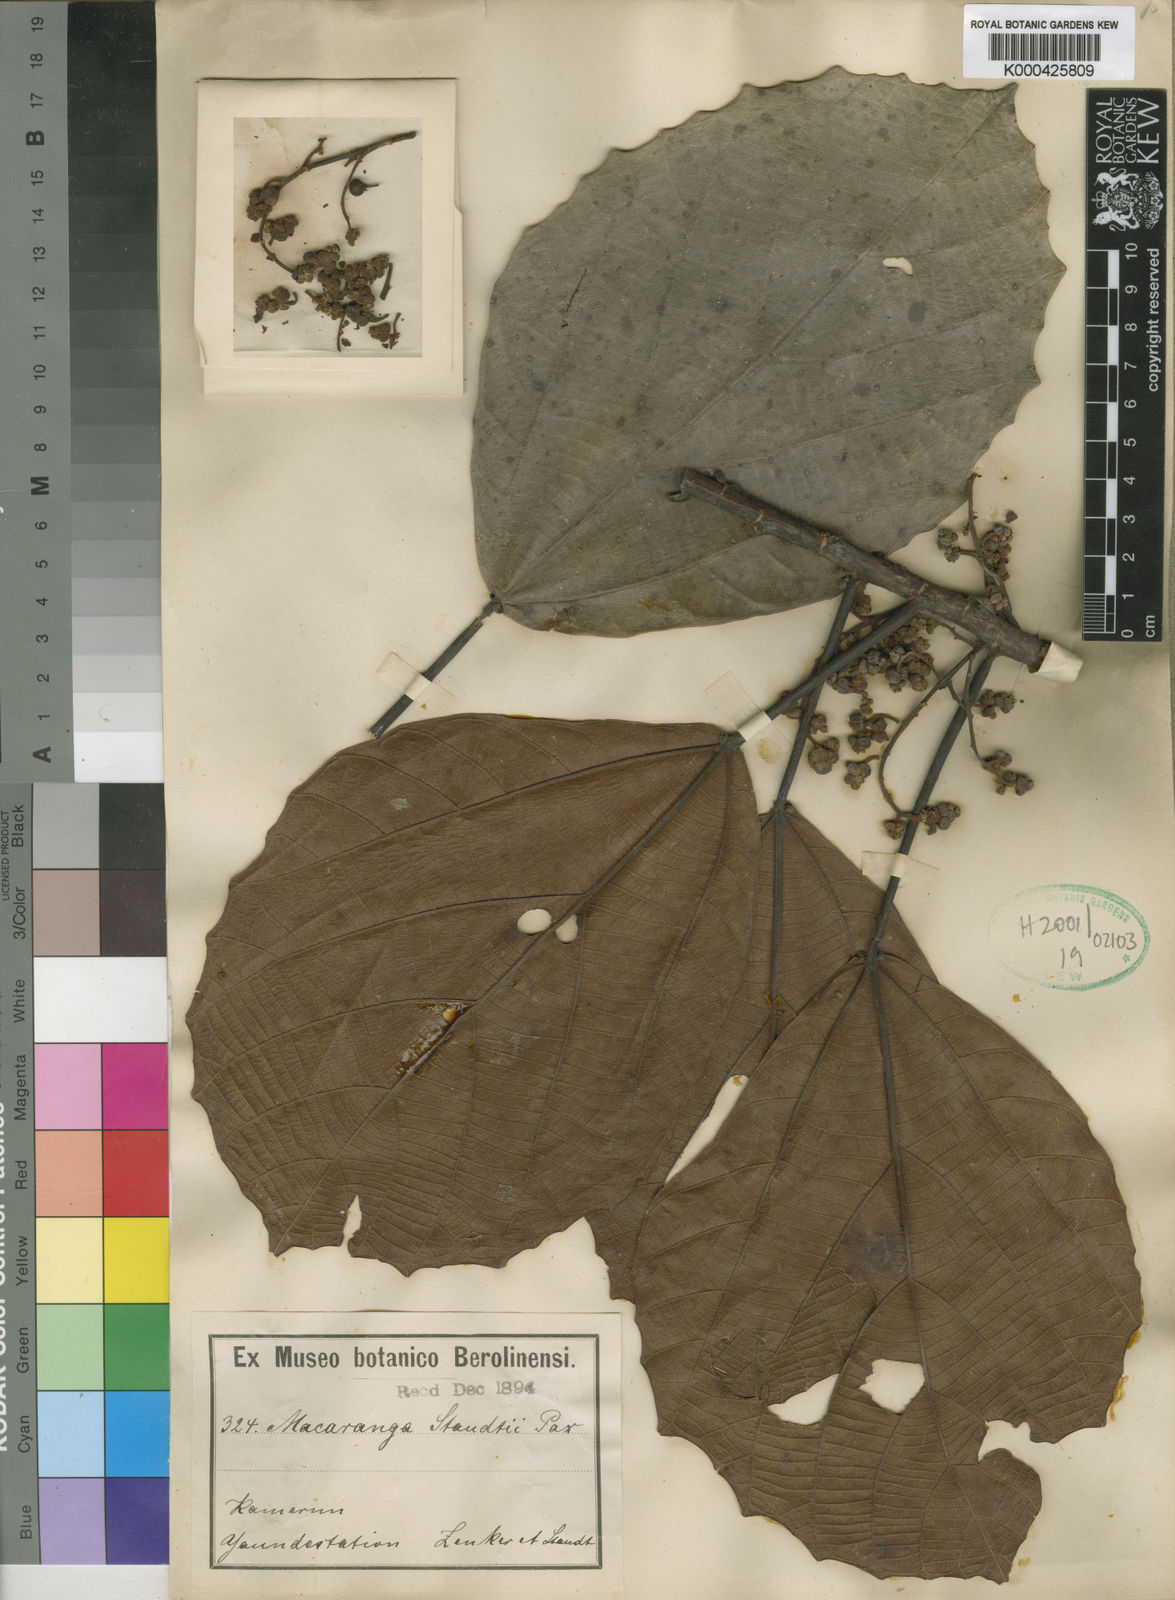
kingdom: Plantae
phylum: Tracheophyta
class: Magnoliopsida
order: Malpighiales
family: Euphorbiaceae
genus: Macaranga
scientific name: Macaranga staudtii
